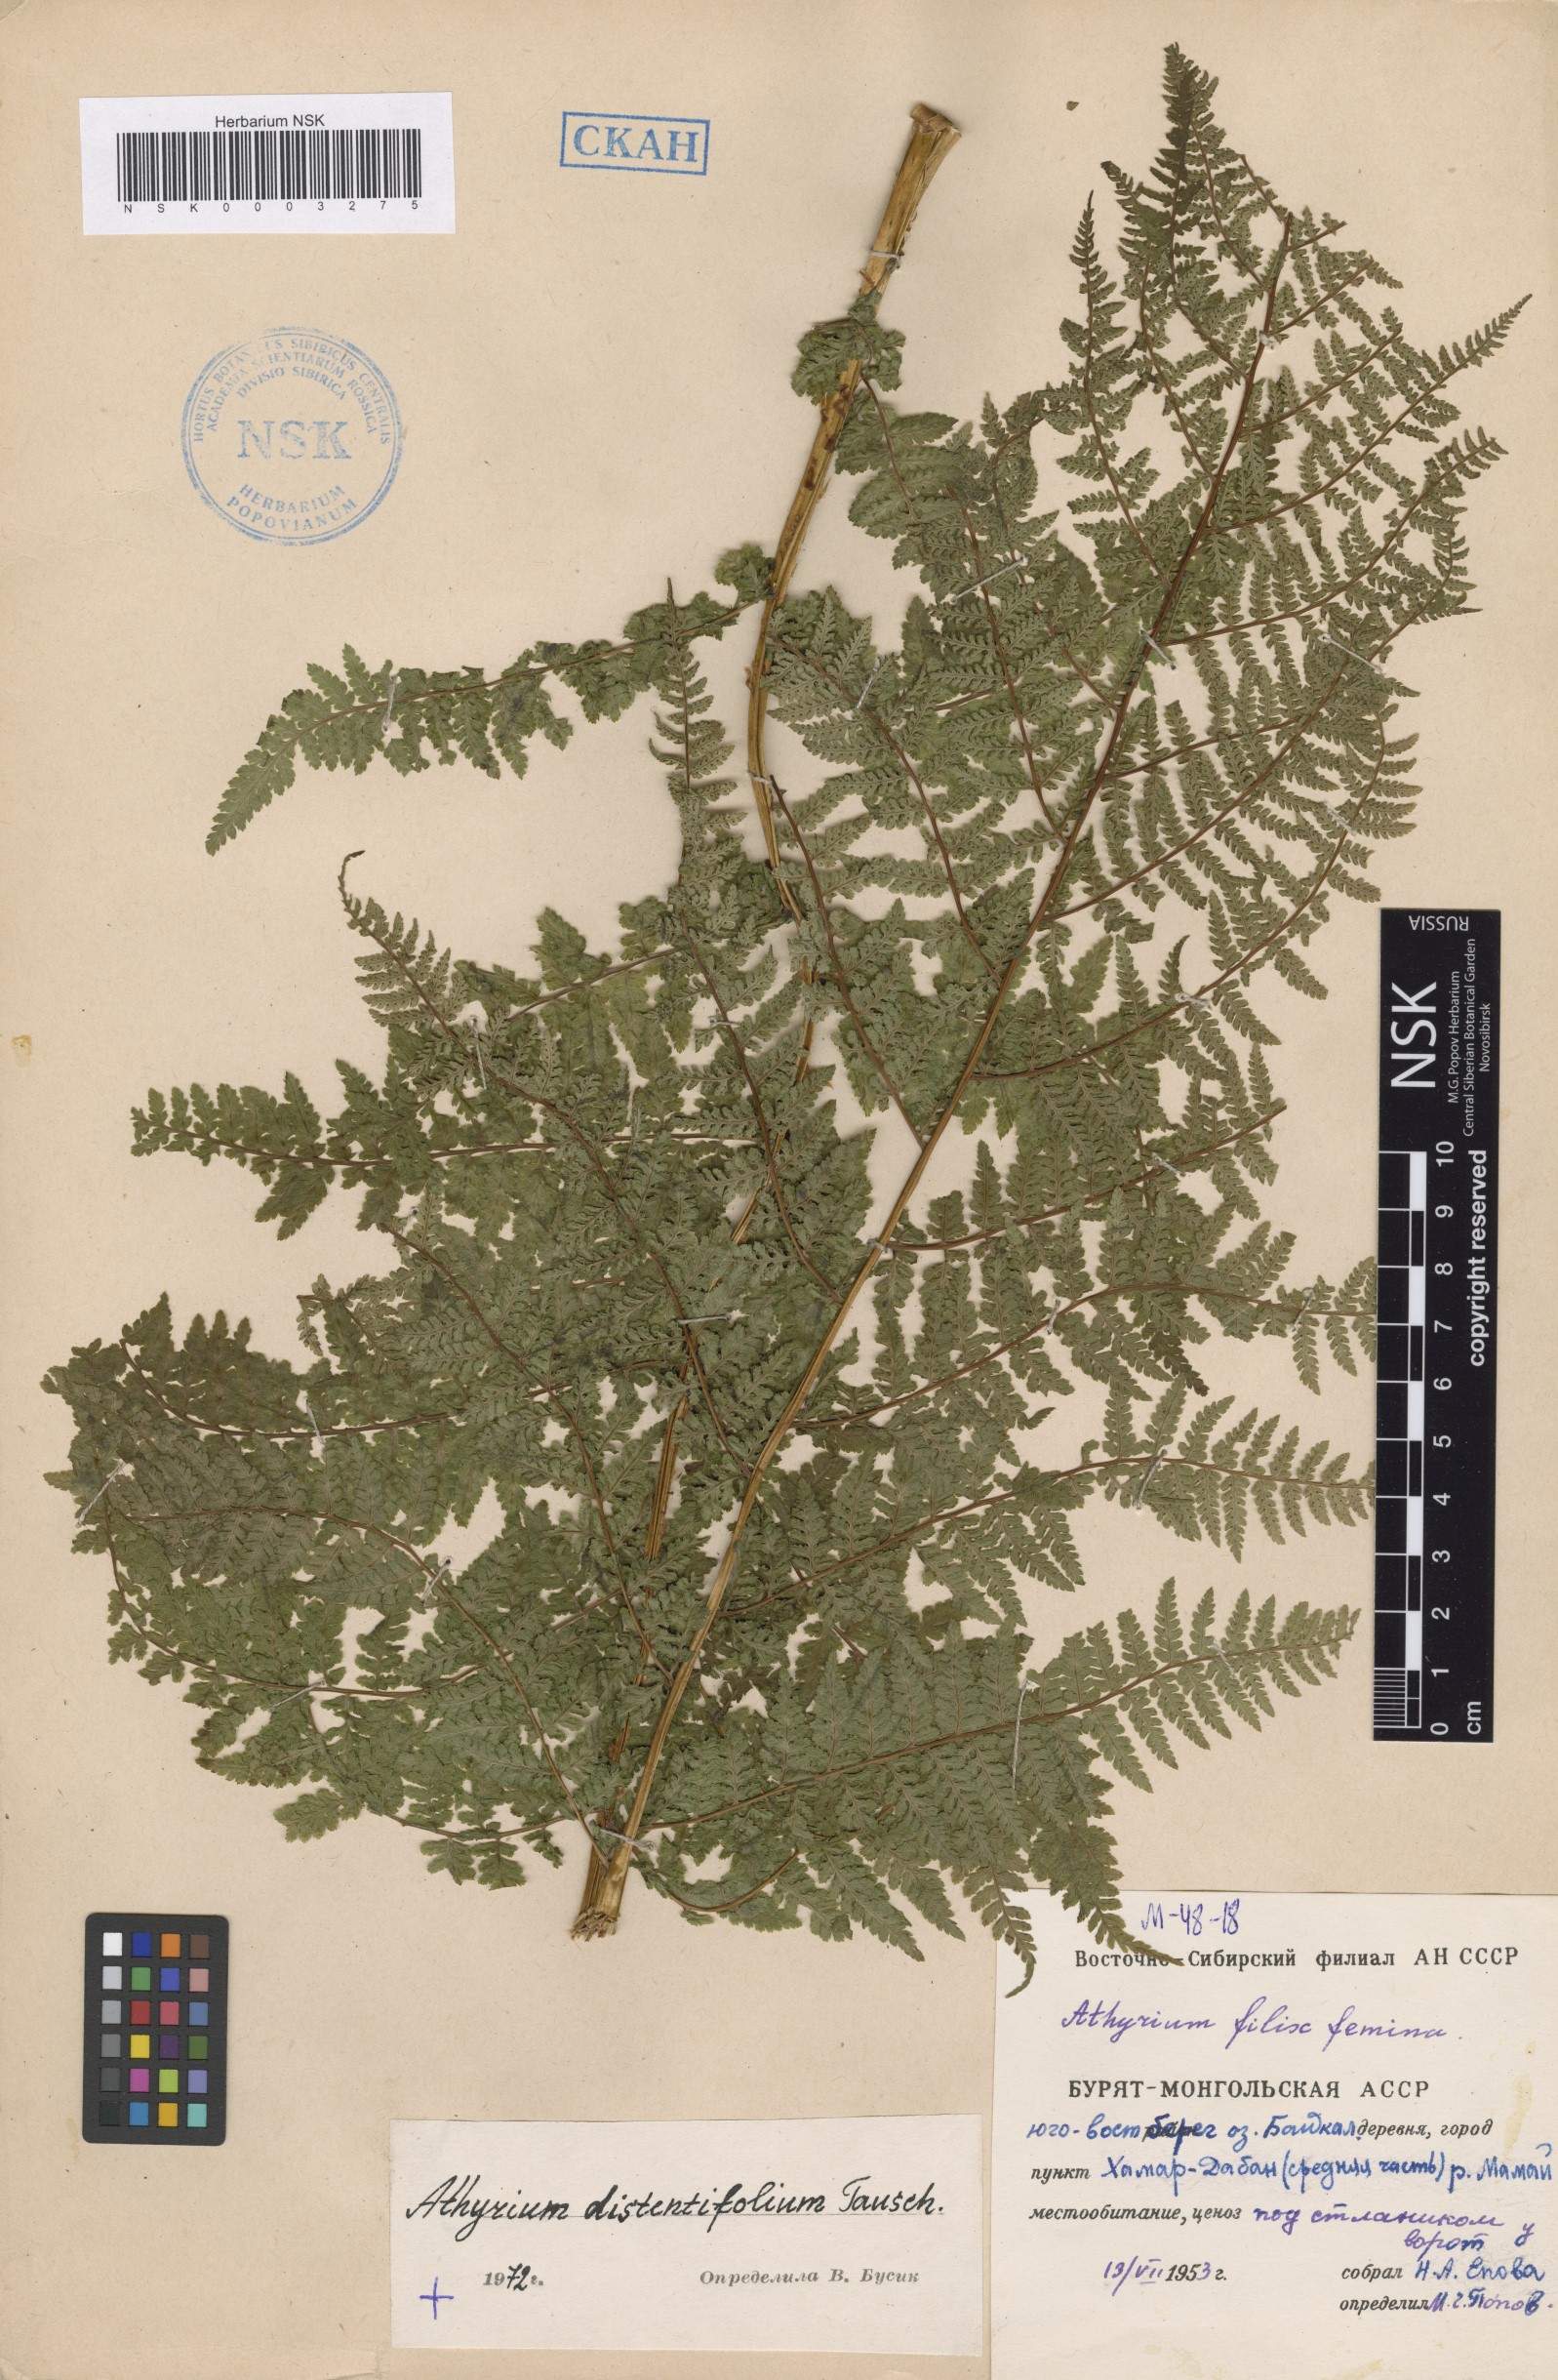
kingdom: Plantae
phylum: Tracheophyta
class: Polypodiopsida
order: Polypodiales
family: Athyriaceae
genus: Pseudathyrium
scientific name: Pseudathyrium alpestre
